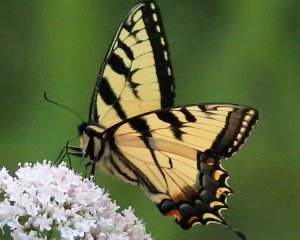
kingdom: Animalia
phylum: Arthropoda
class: Insecta
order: Lepidoptera
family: Papilionidae
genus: Pterourus
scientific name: Pterourus glaucus
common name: Eastern Tiger Swallowtail
